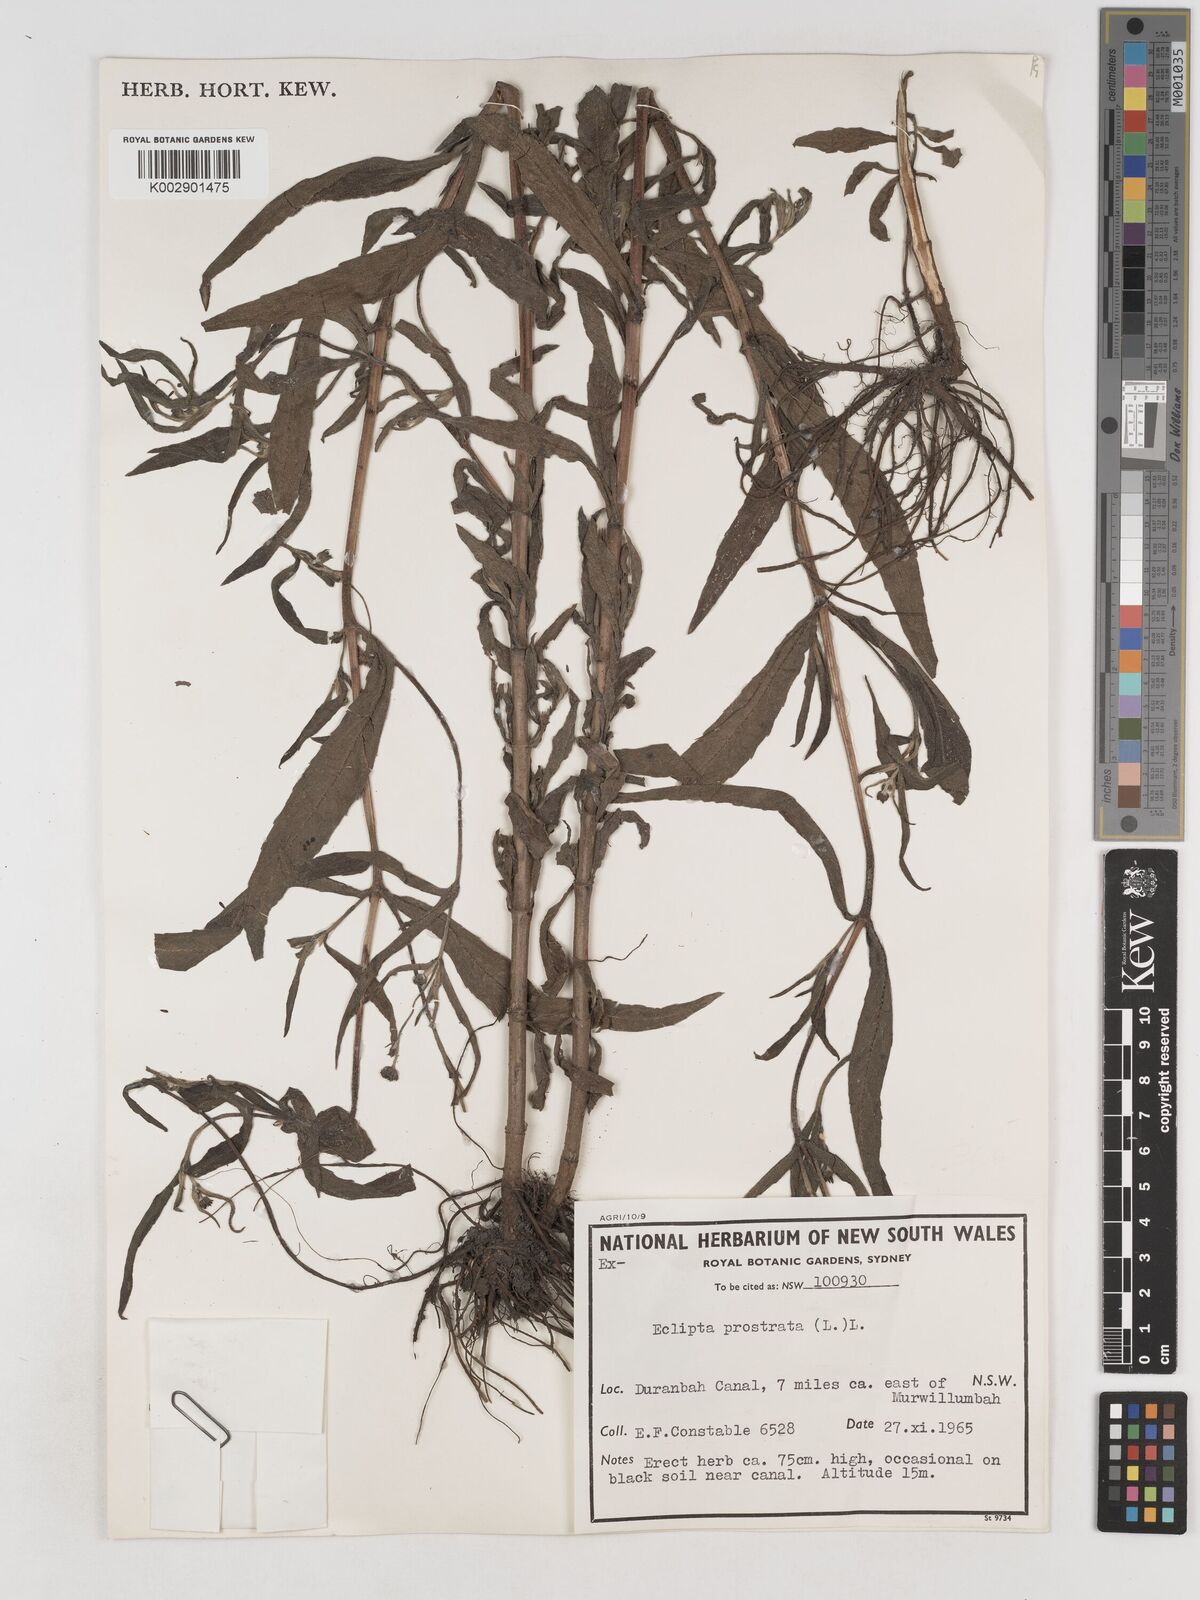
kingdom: Plantae
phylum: Tracheophyta
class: Magnoliopsida
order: Asterales
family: Asteraceae
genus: Eclipta
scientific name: Eclipta prostrata
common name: False daisy
